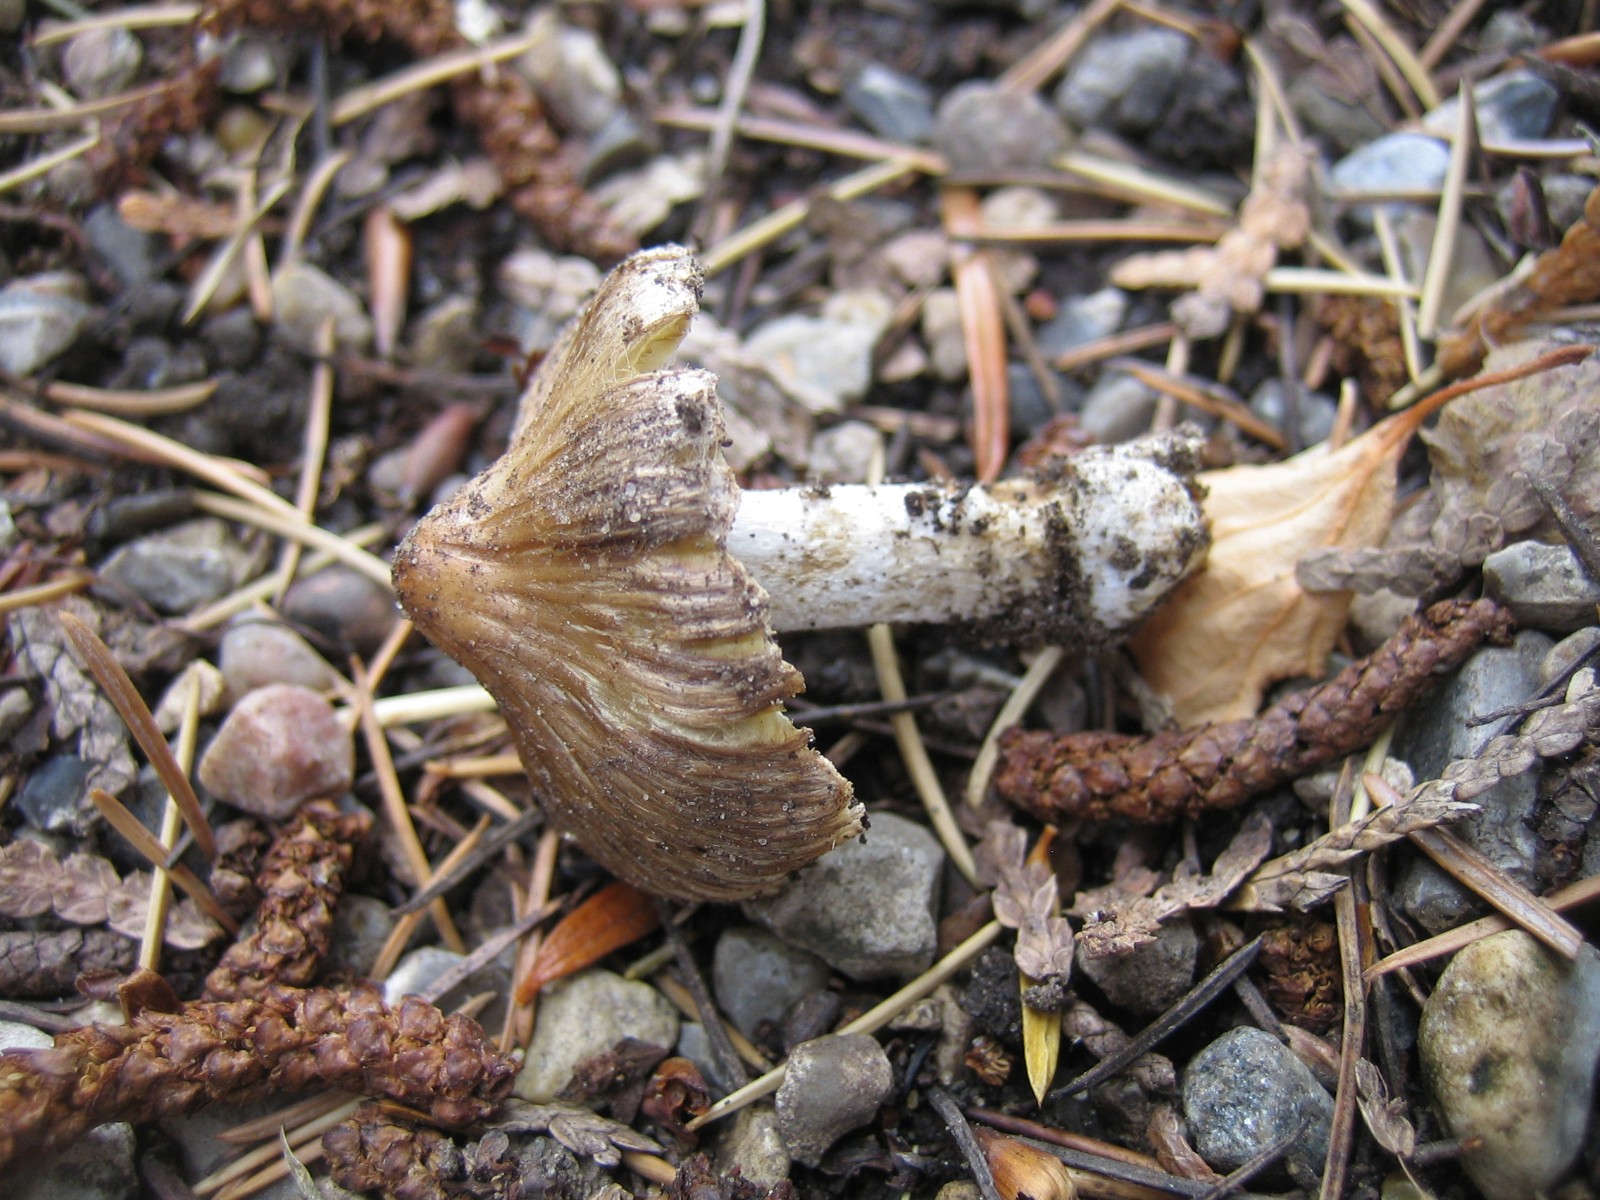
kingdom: Fungi
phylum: Basidiomycota
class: Agaricomycetes
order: Agaricales
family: Inocybaceae
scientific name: Inocybaceae
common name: trævlhatfamilien
